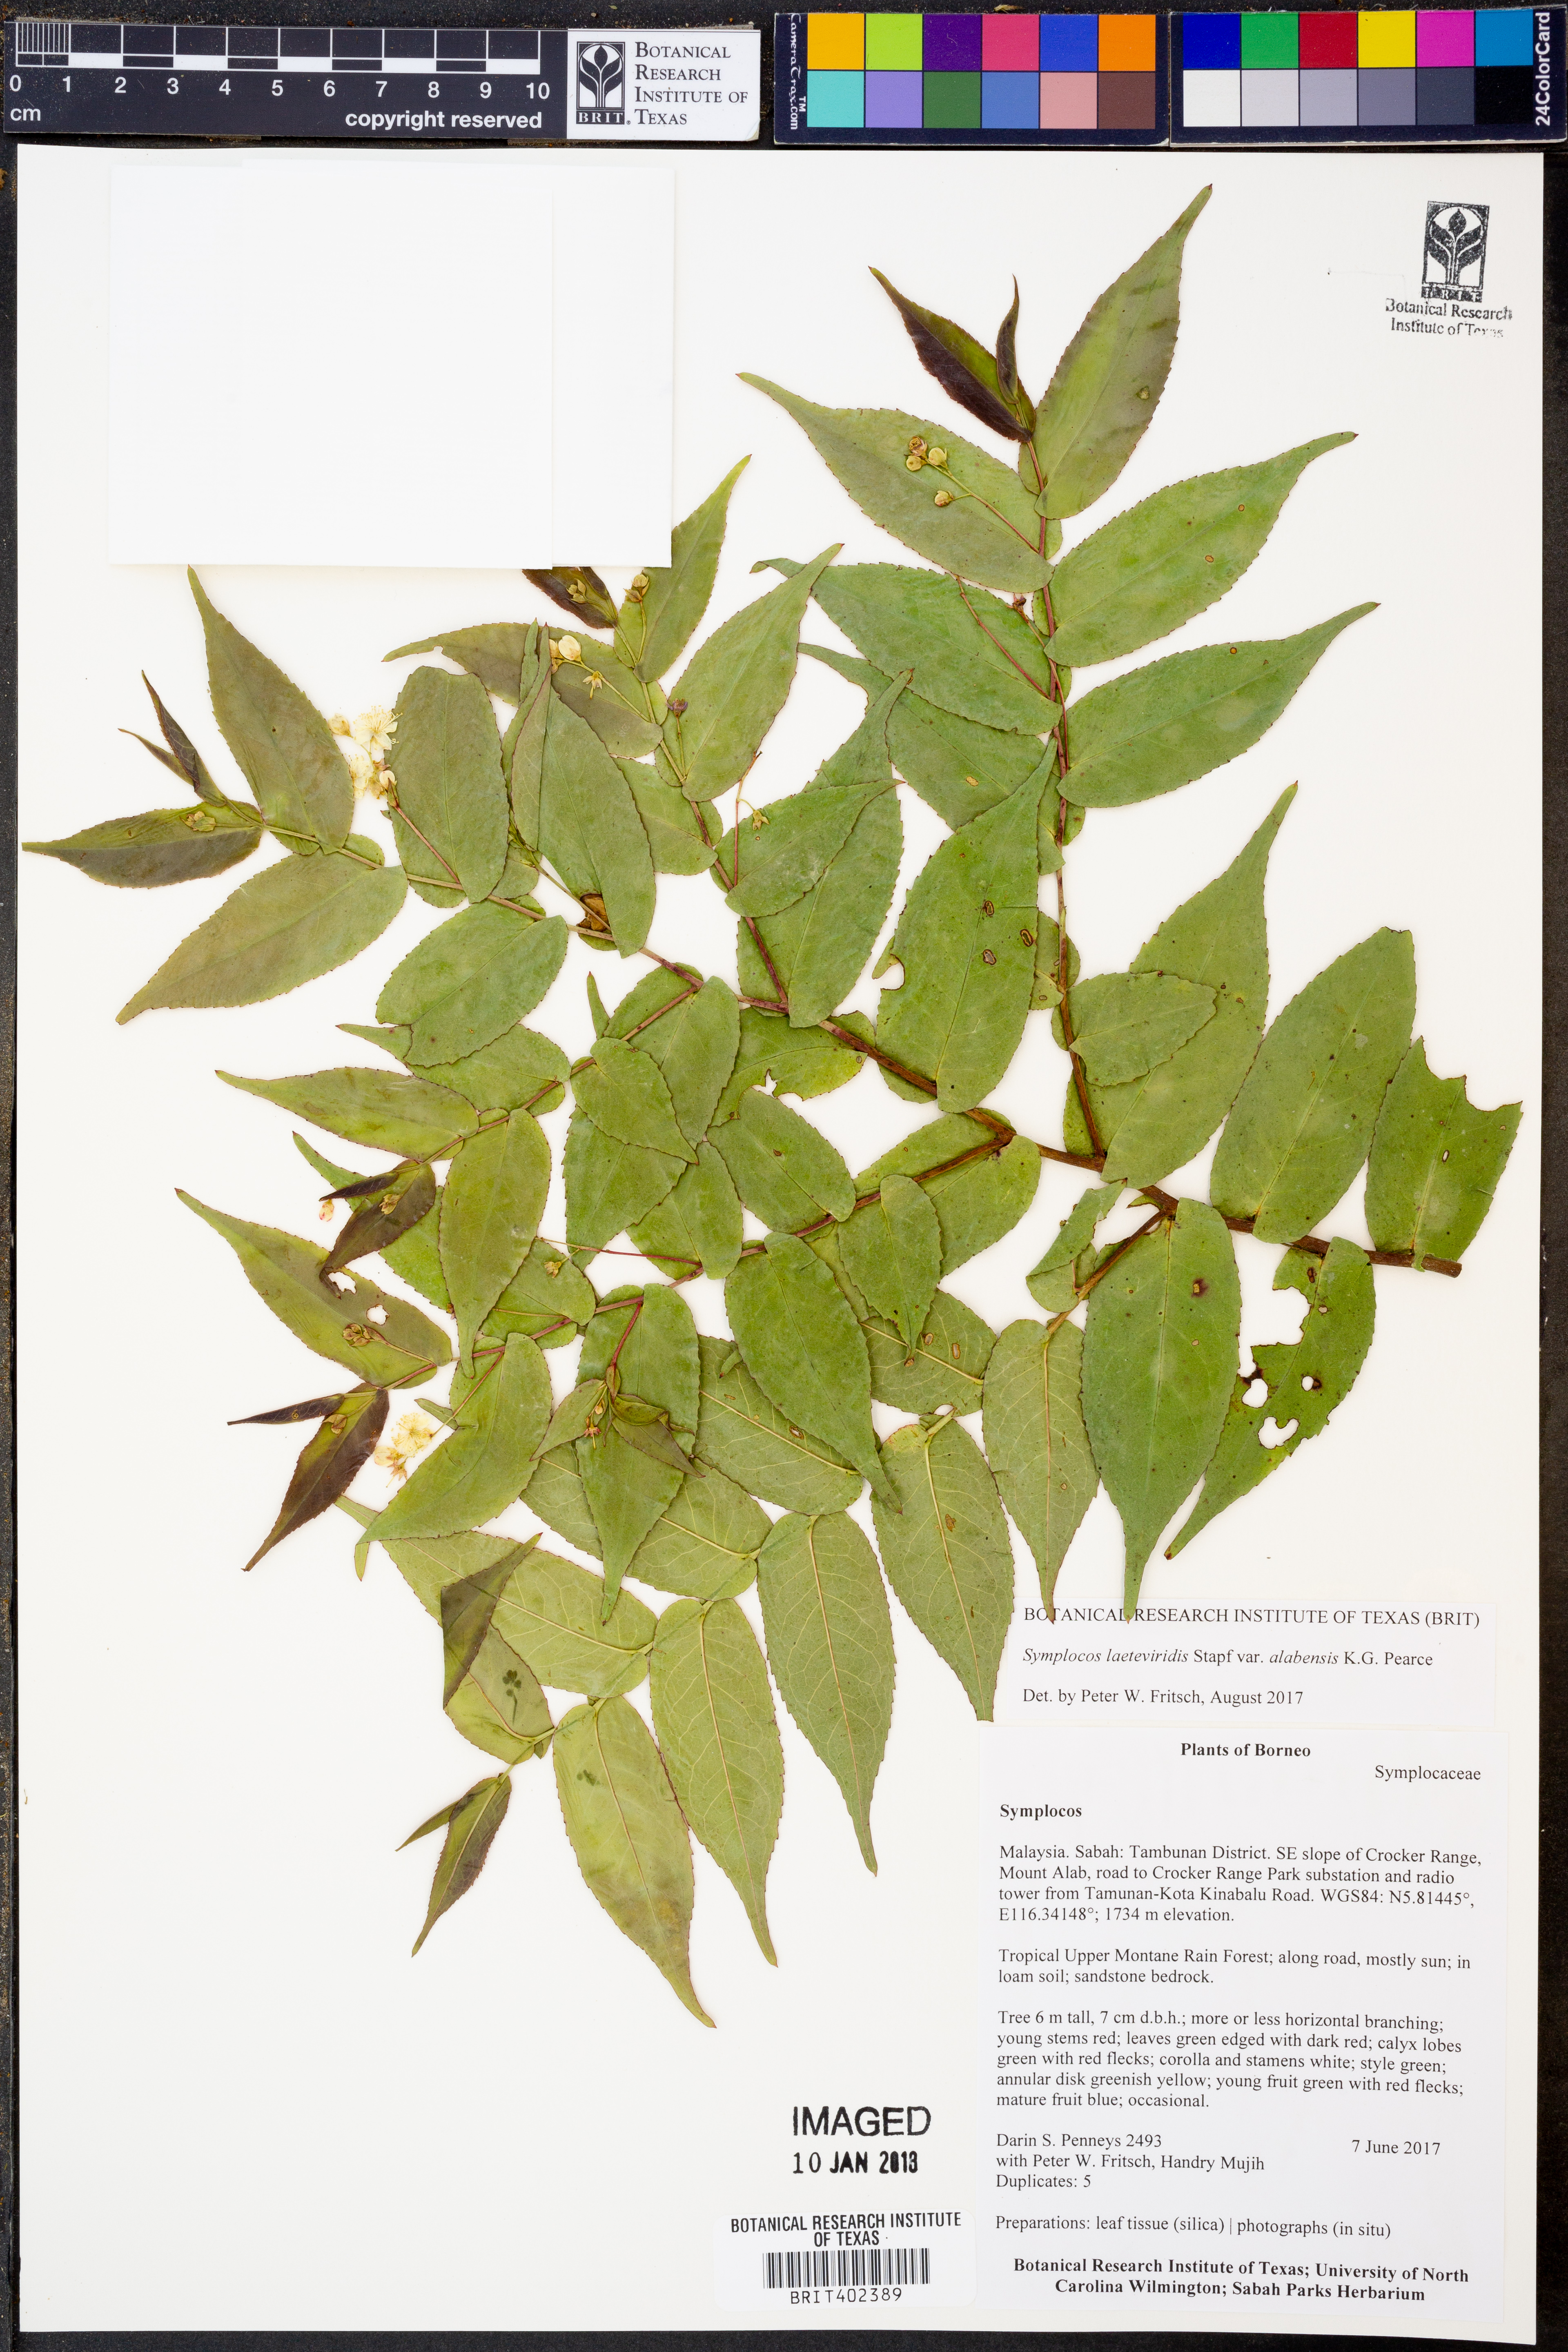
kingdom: Plantae
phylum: Tracheophyta
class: Magnoliopsida
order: Ericales
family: Symplocaceae
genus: Symplocos
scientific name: Symplocos laeteviridis
